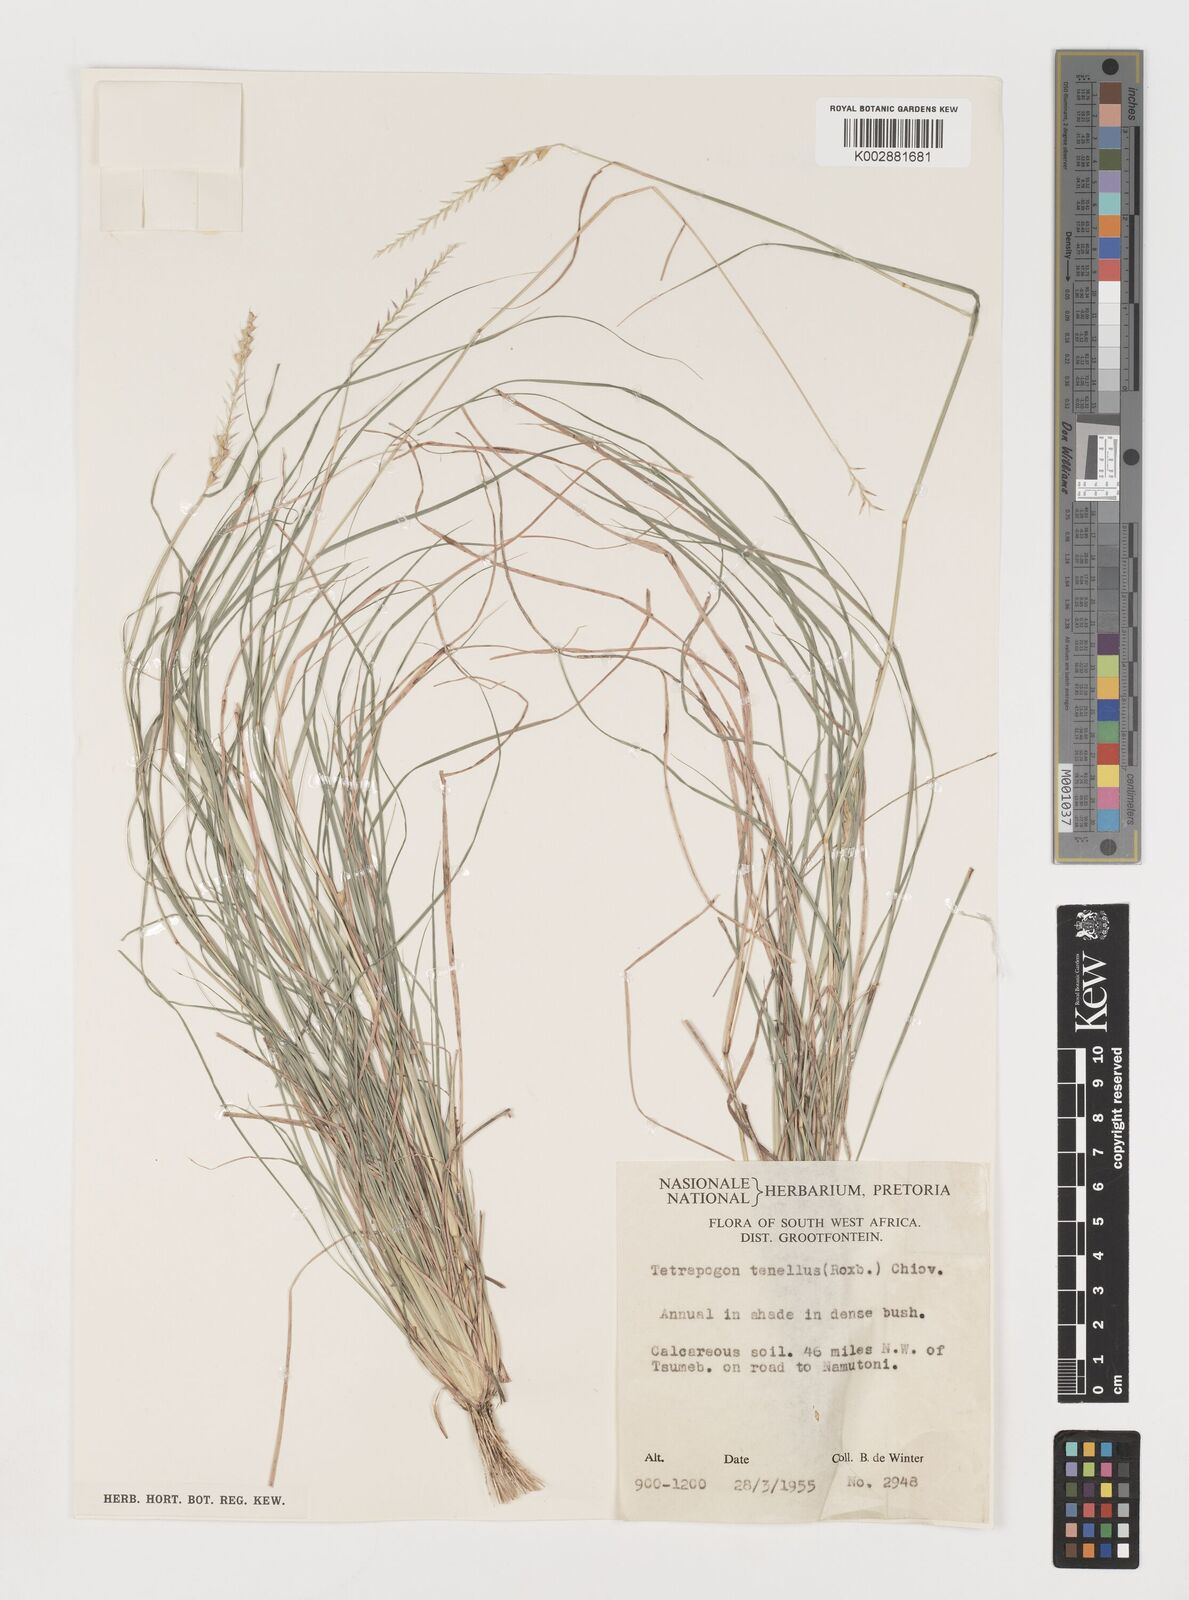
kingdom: Plantae
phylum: Tracheophyta
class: Liliopsida
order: Poales
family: Poaceae
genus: Tetrapogon
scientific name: Tetrapogon tenellus
